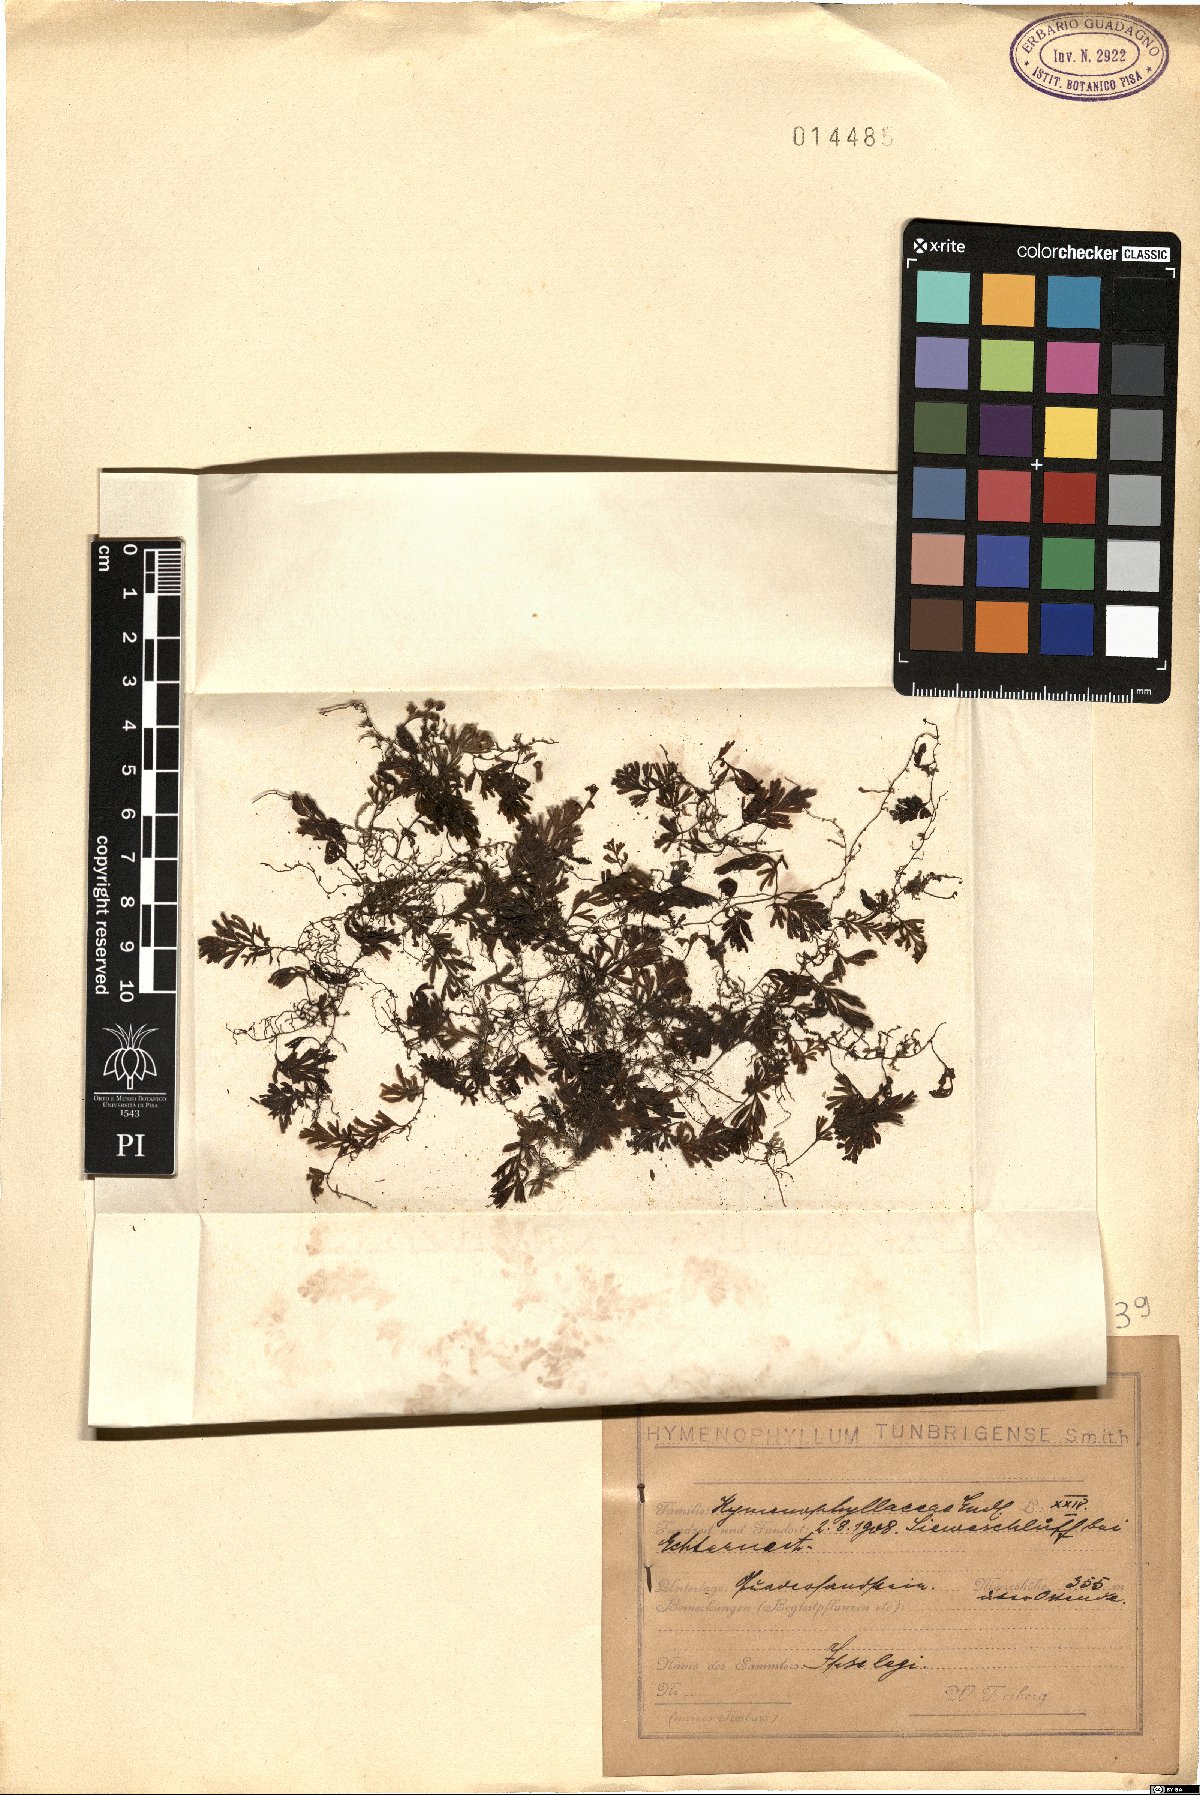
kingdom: Plantae
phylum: Tracheophyta
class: Polypodiopsida
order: Hymenophyllales
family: Hymenophyllaceae
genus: Hymenophyllum
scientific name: Hymenophyllum tunbrigense
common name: Tunbridge filmy fern
